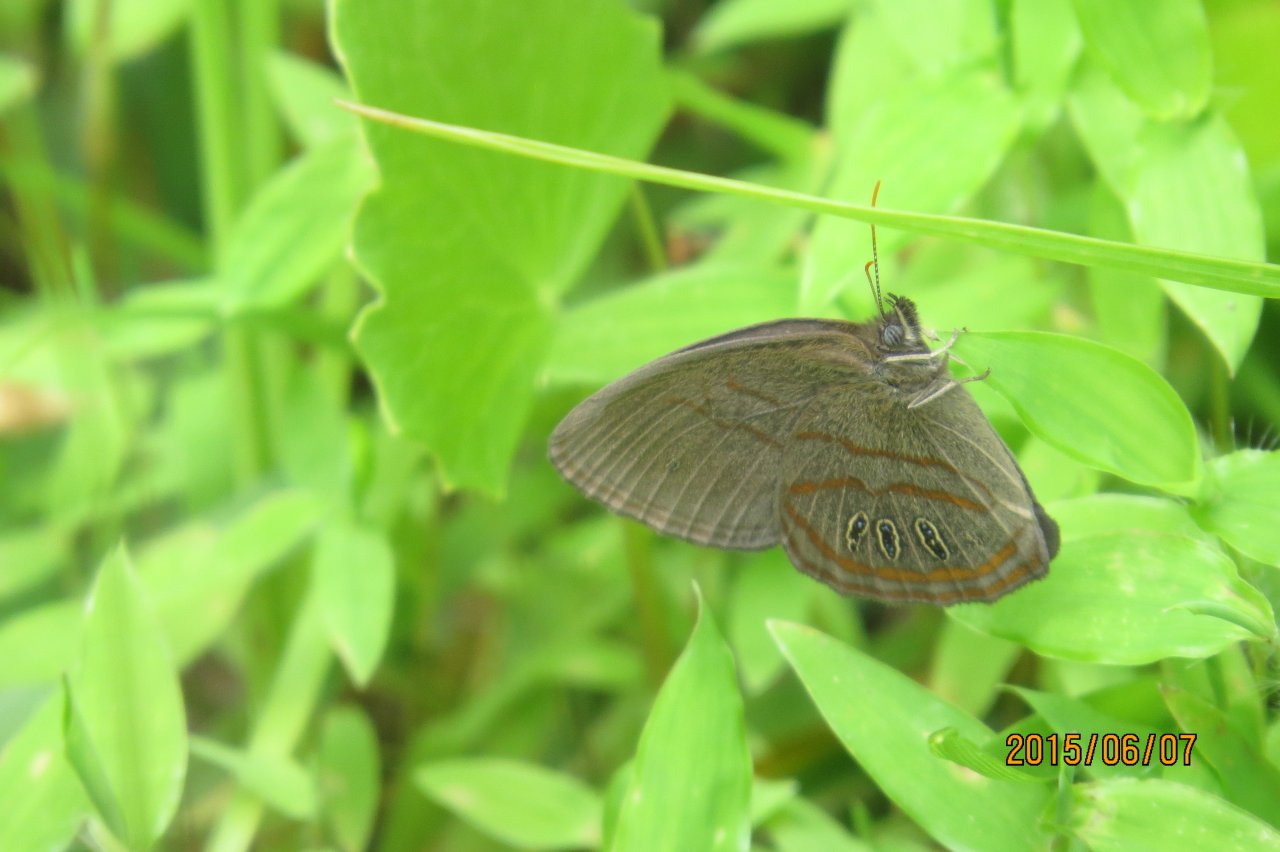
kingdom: Animalia
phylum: Arthropoda
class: Insecta
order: Lepidoptera
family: Nymphalidae
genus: Euptychia
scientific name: Euptychia phocion
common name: Georgia Satyr
